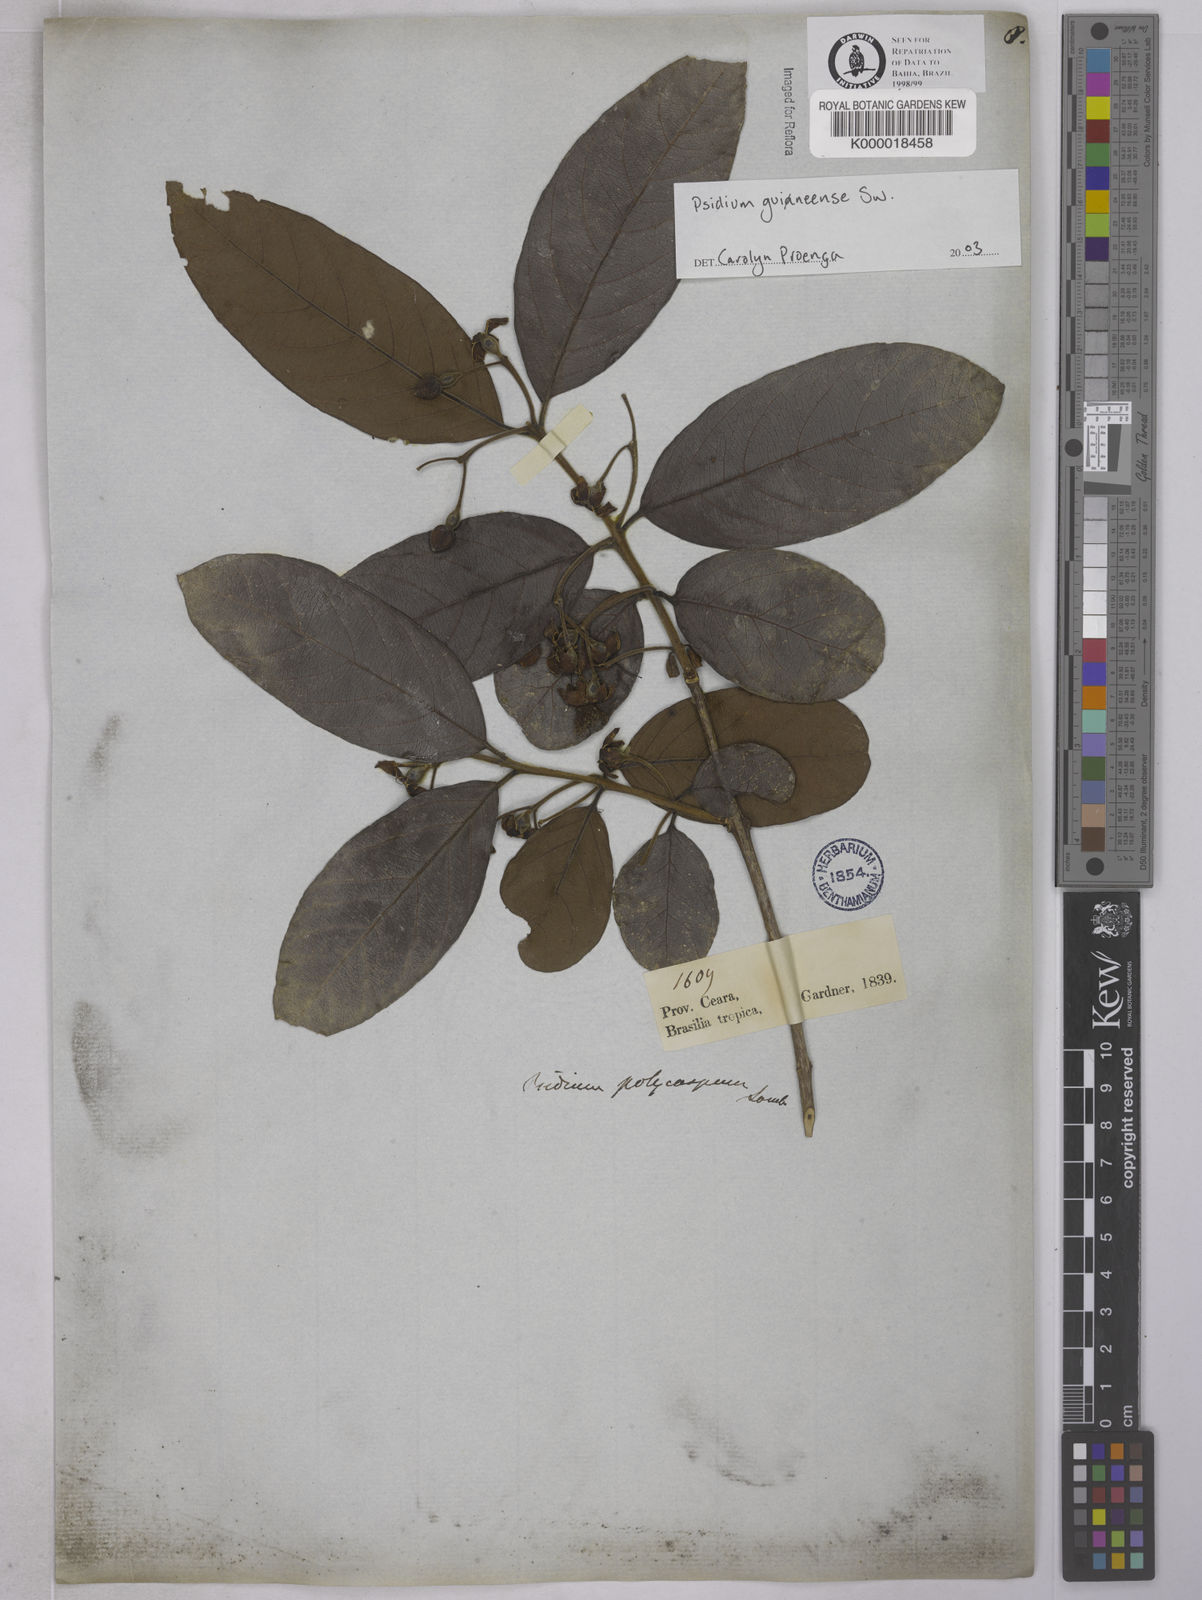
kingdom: Plantae
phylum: Tracheophyta
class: Magnoliopsida
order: Myrtales
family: Myrtaceae
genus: Psidium
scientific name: Psidium guineense
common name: Brazilian guava
